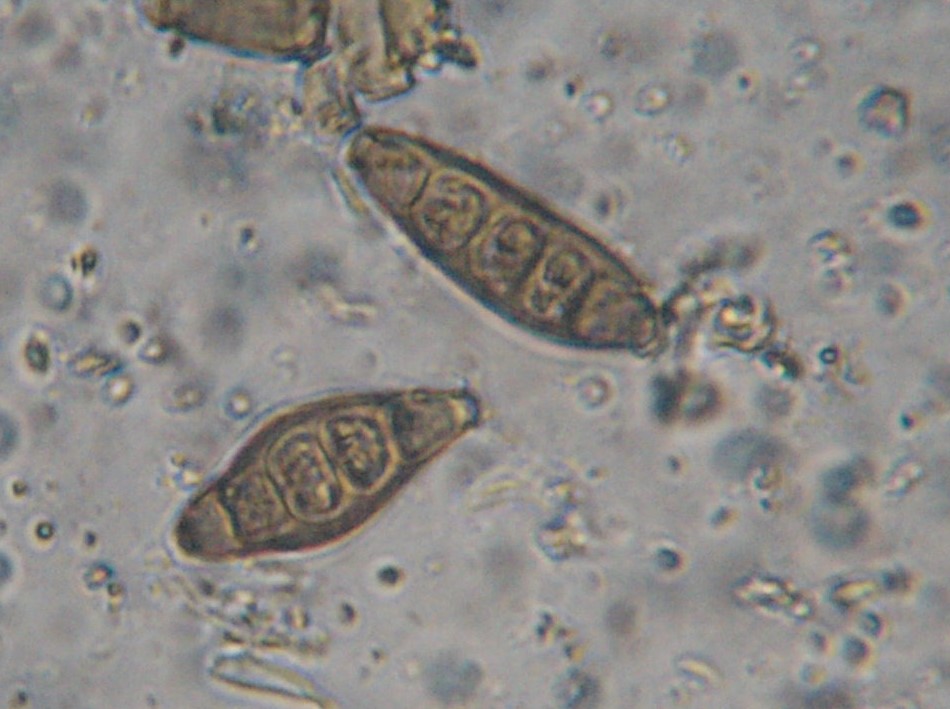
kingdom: Fungi
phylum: Ascomycota
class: Sordariomycetes
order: Diaporthales
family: Coryneaceae
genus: Coryneum
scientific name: Coryneum lanciforme
